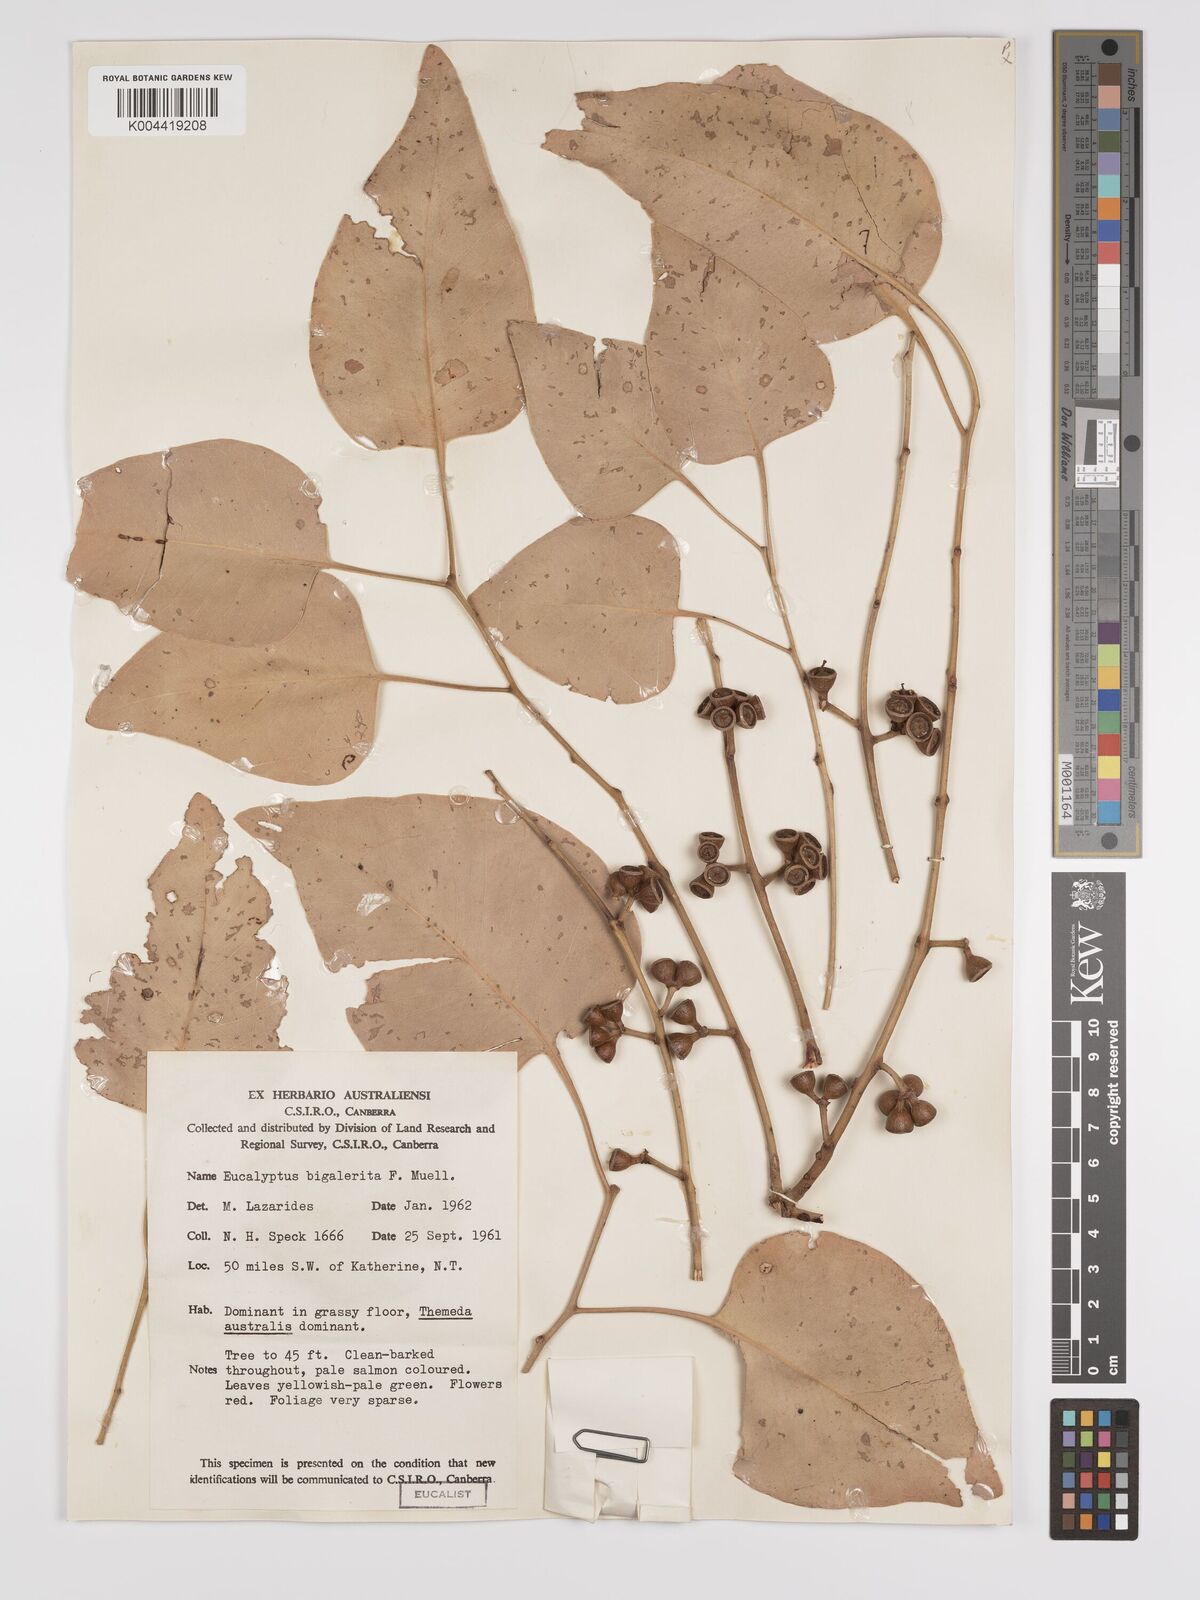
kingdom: Plantae
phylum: Tracheophyta
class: Magnoliopsida
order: Myrtales
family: Myrtaceae
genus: Eucalyptus
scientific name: Eucalyptus bigalerita
